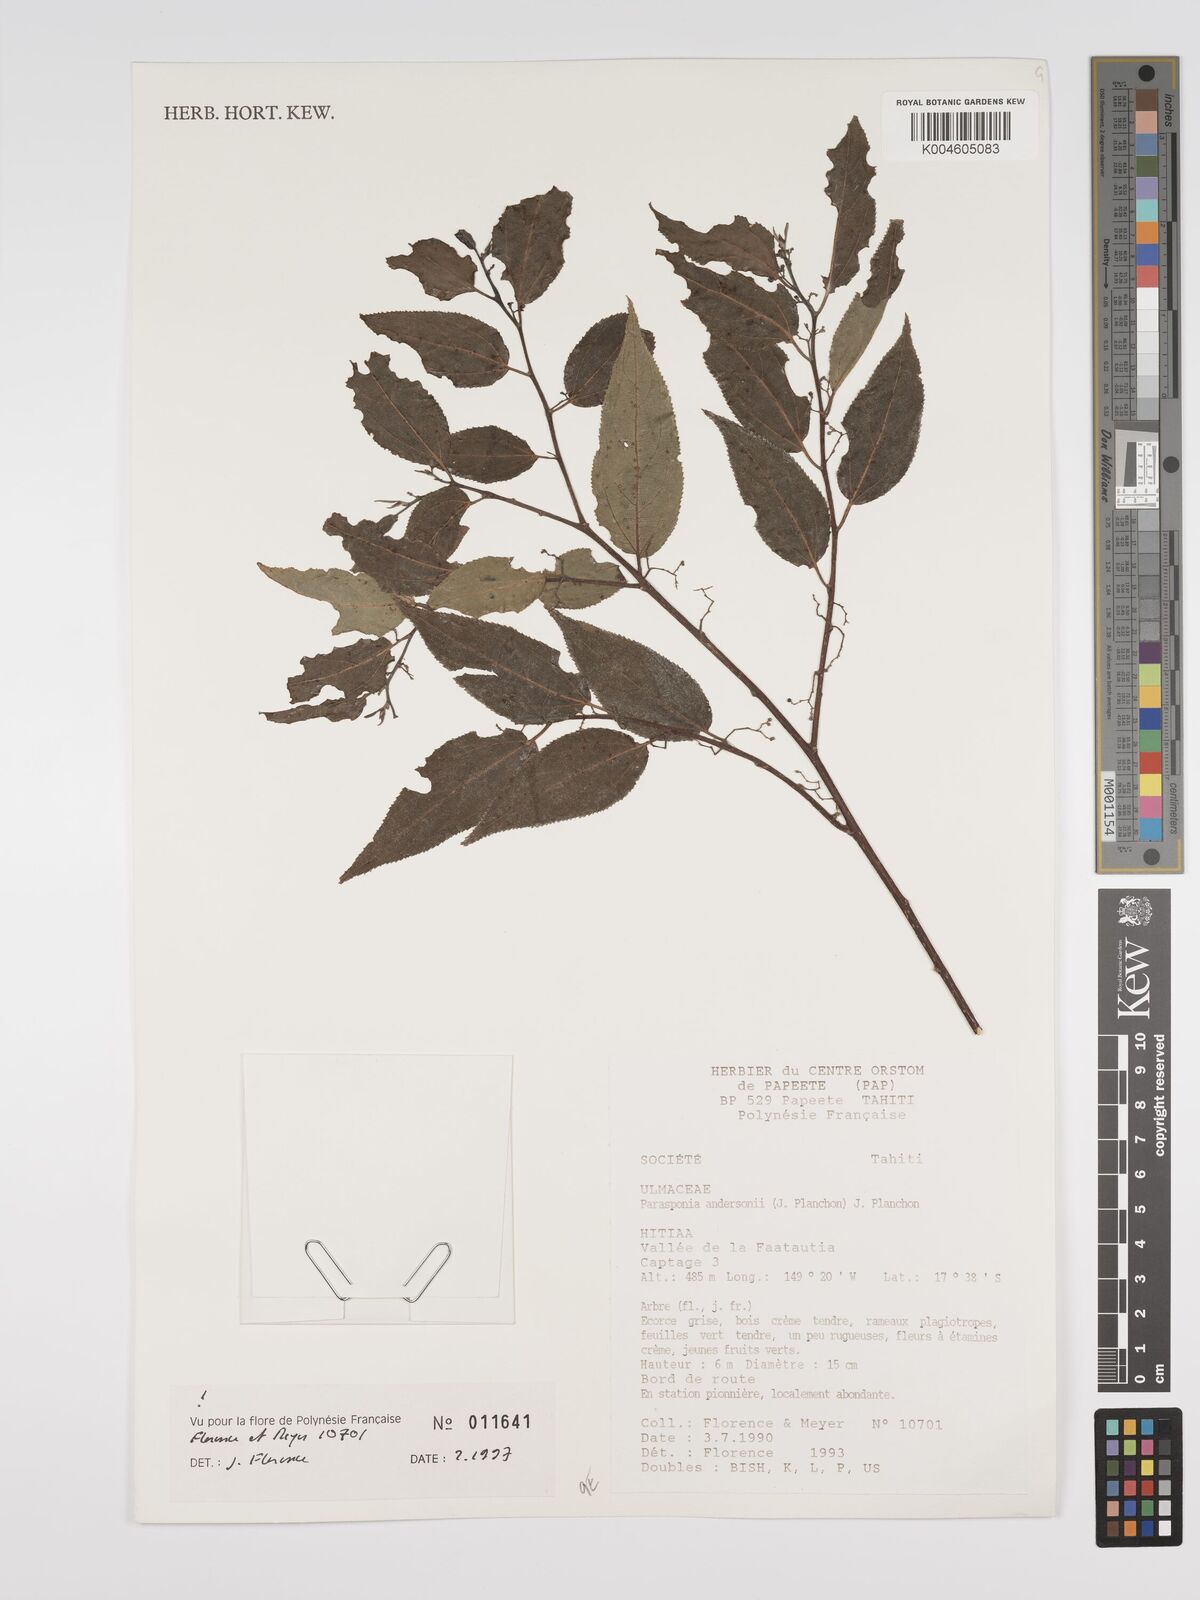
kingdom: Plantae
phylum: Tracheophyta
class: Magnoliopsida
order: Rosales
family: Cannabaceae
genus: Trema
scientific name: Trema andersonii
